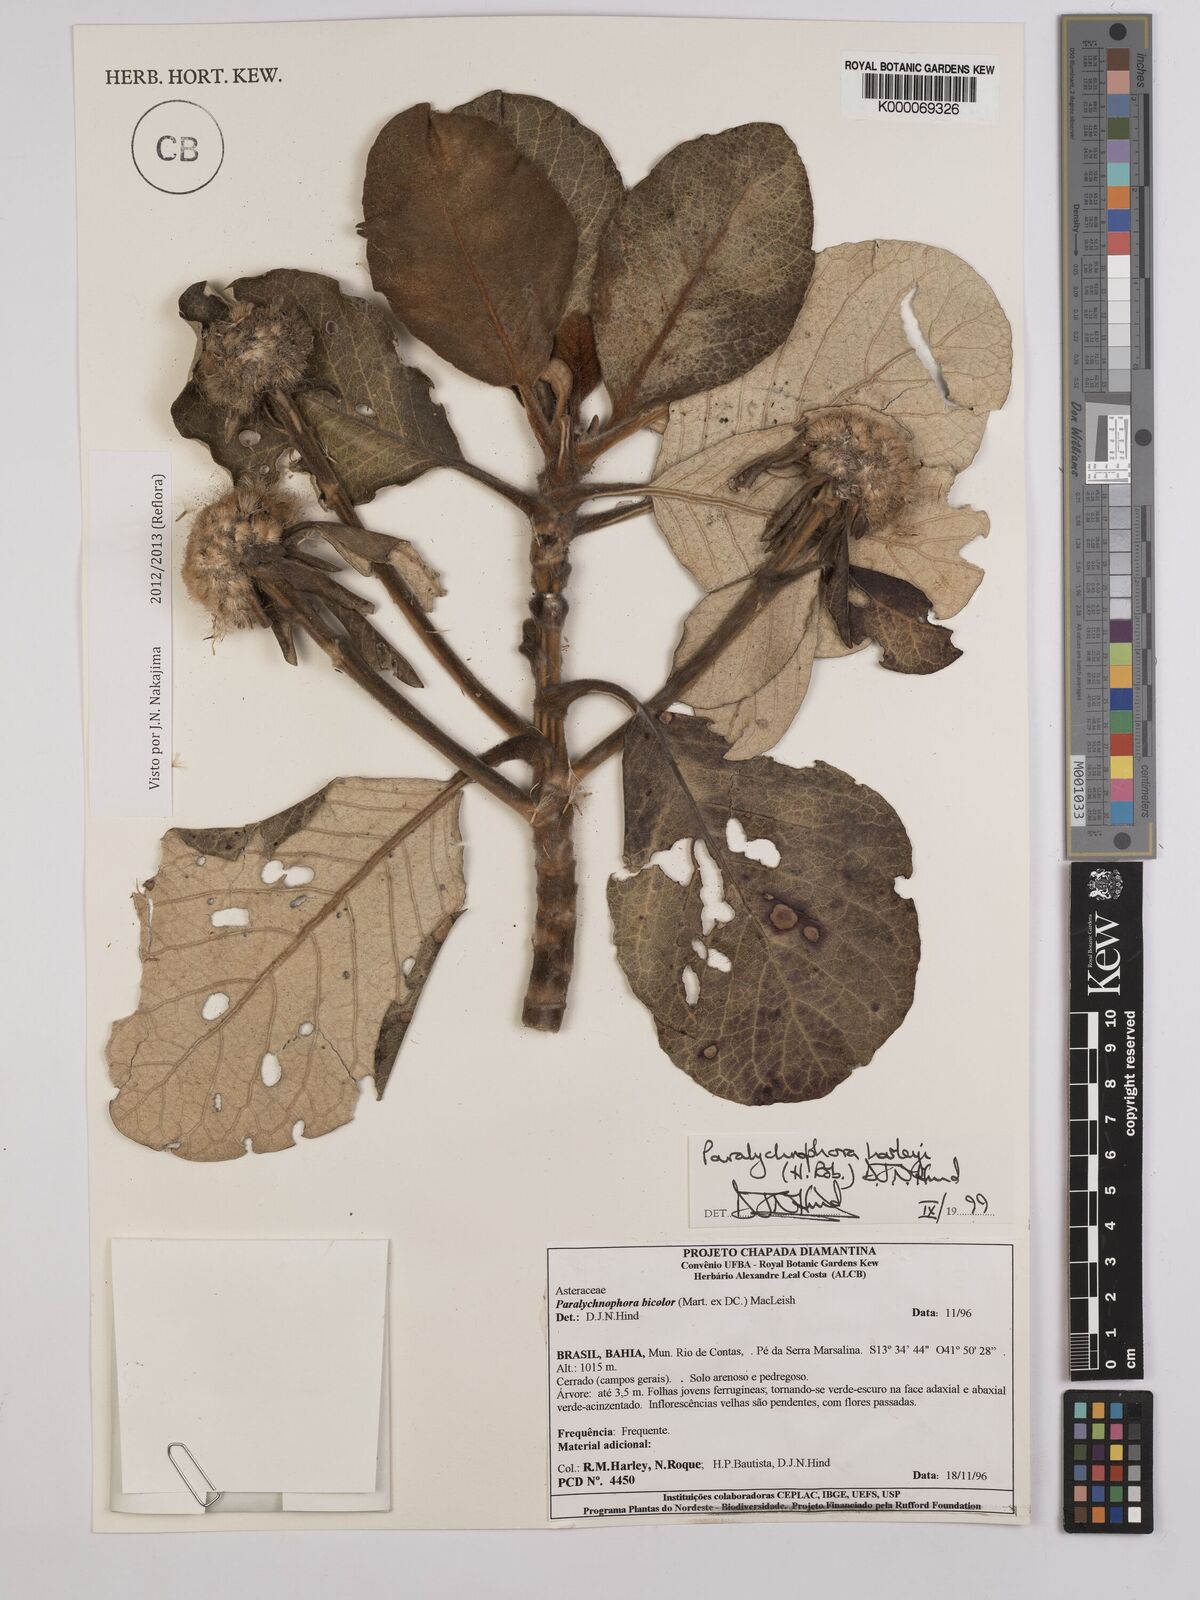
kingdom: Plantae
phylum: Tracheophyta
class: Magnoliopsida
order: Asterales
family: Asteraceae
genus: Paralychnophora
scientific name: Paralychnophora harleyi
